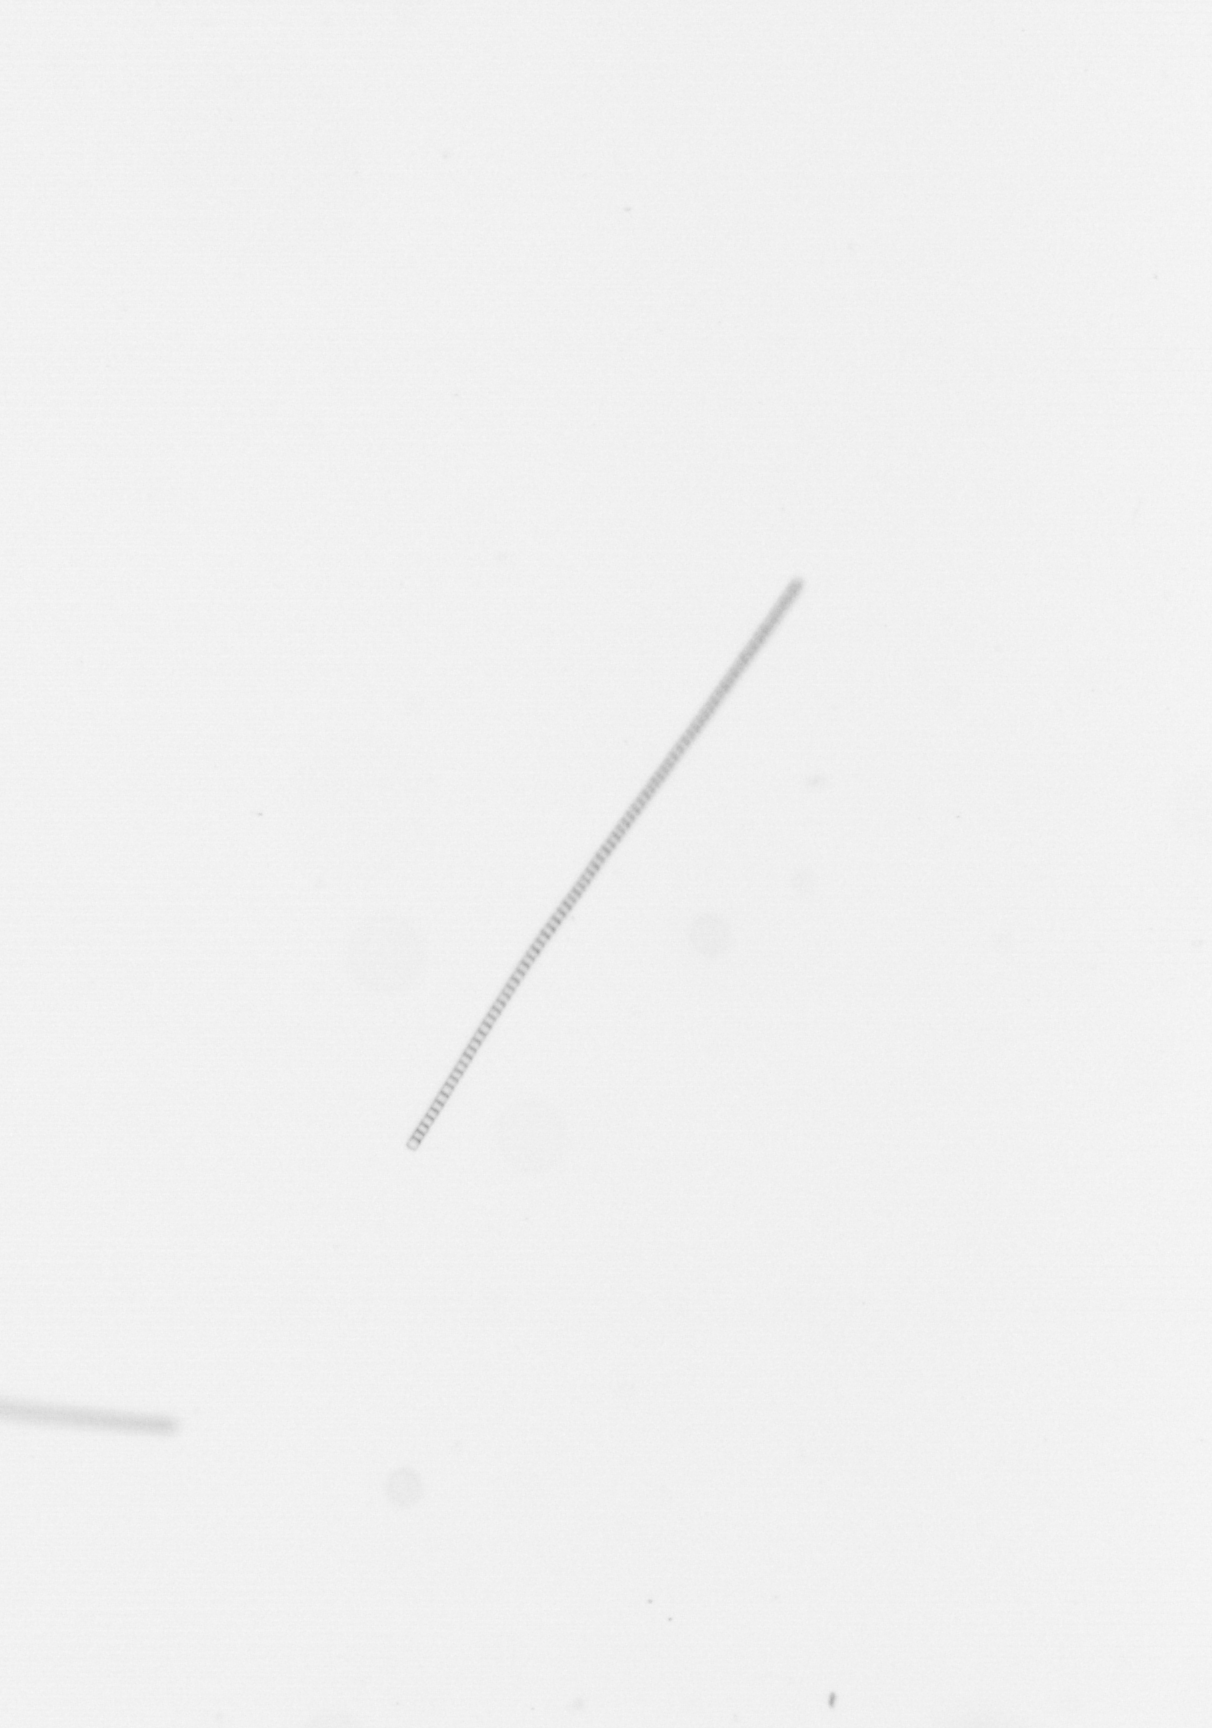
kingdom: Chromista
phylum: Ochrophyta
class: Bacillariophyceae
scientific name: Bacillariophyceae
